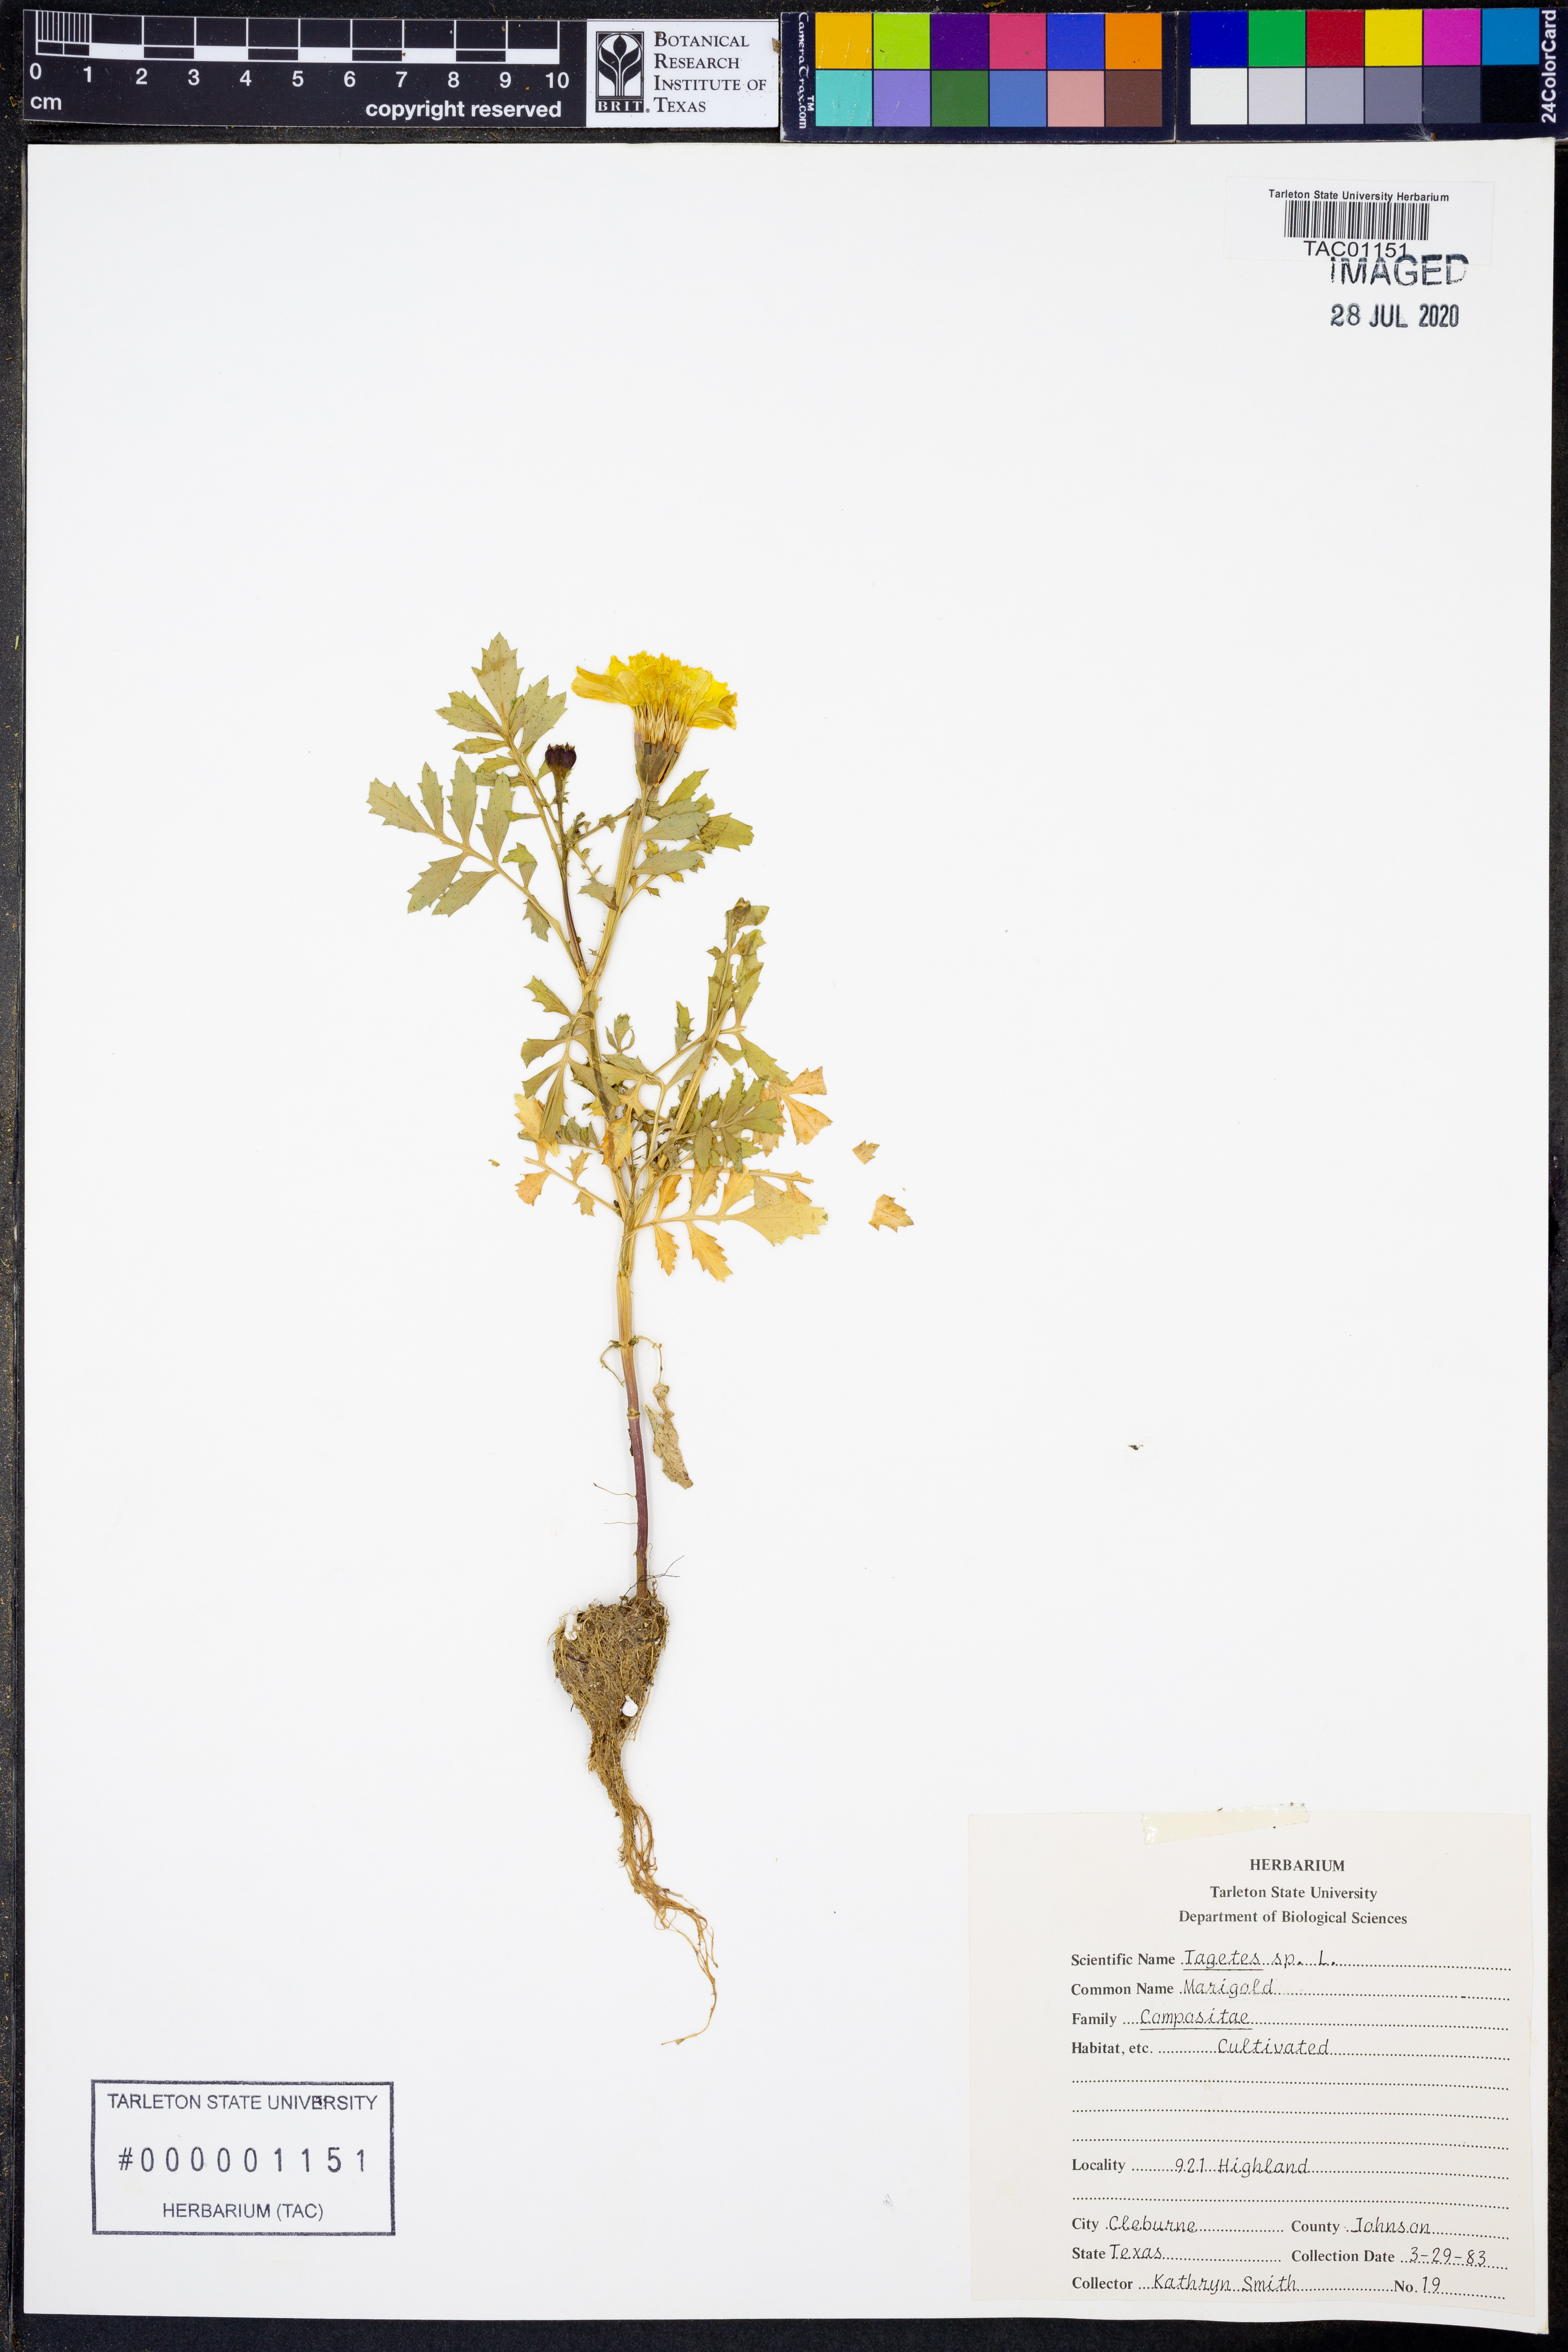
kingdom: Plantae
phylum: Tracheophyta
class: Magnoliopsida
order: Asterales
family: Asteraceae
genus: Tagetes
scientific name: Tagetes
